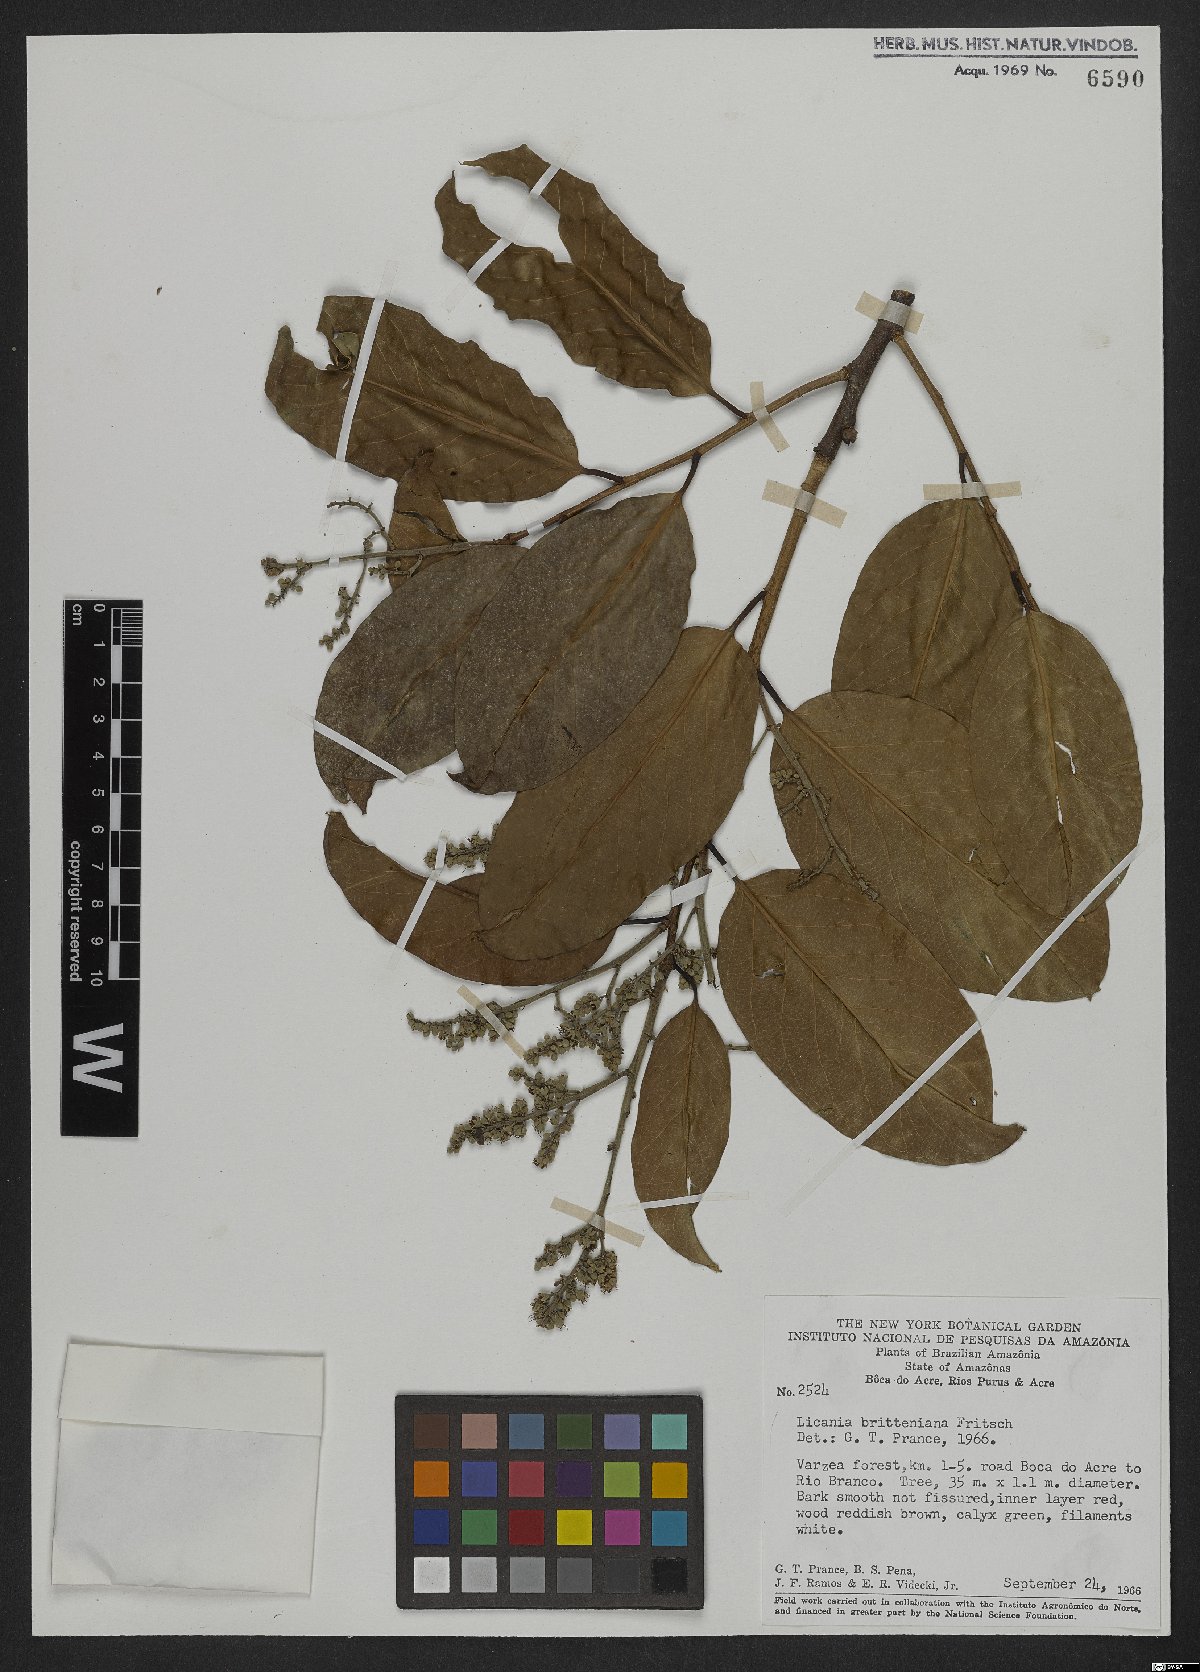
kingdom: Plantae
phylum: Tracheophyta
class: Magnoliopsida
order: Malpighiales
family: Chrysobalanaceae
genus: Moquilea
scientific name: Moquilea brittoniana
